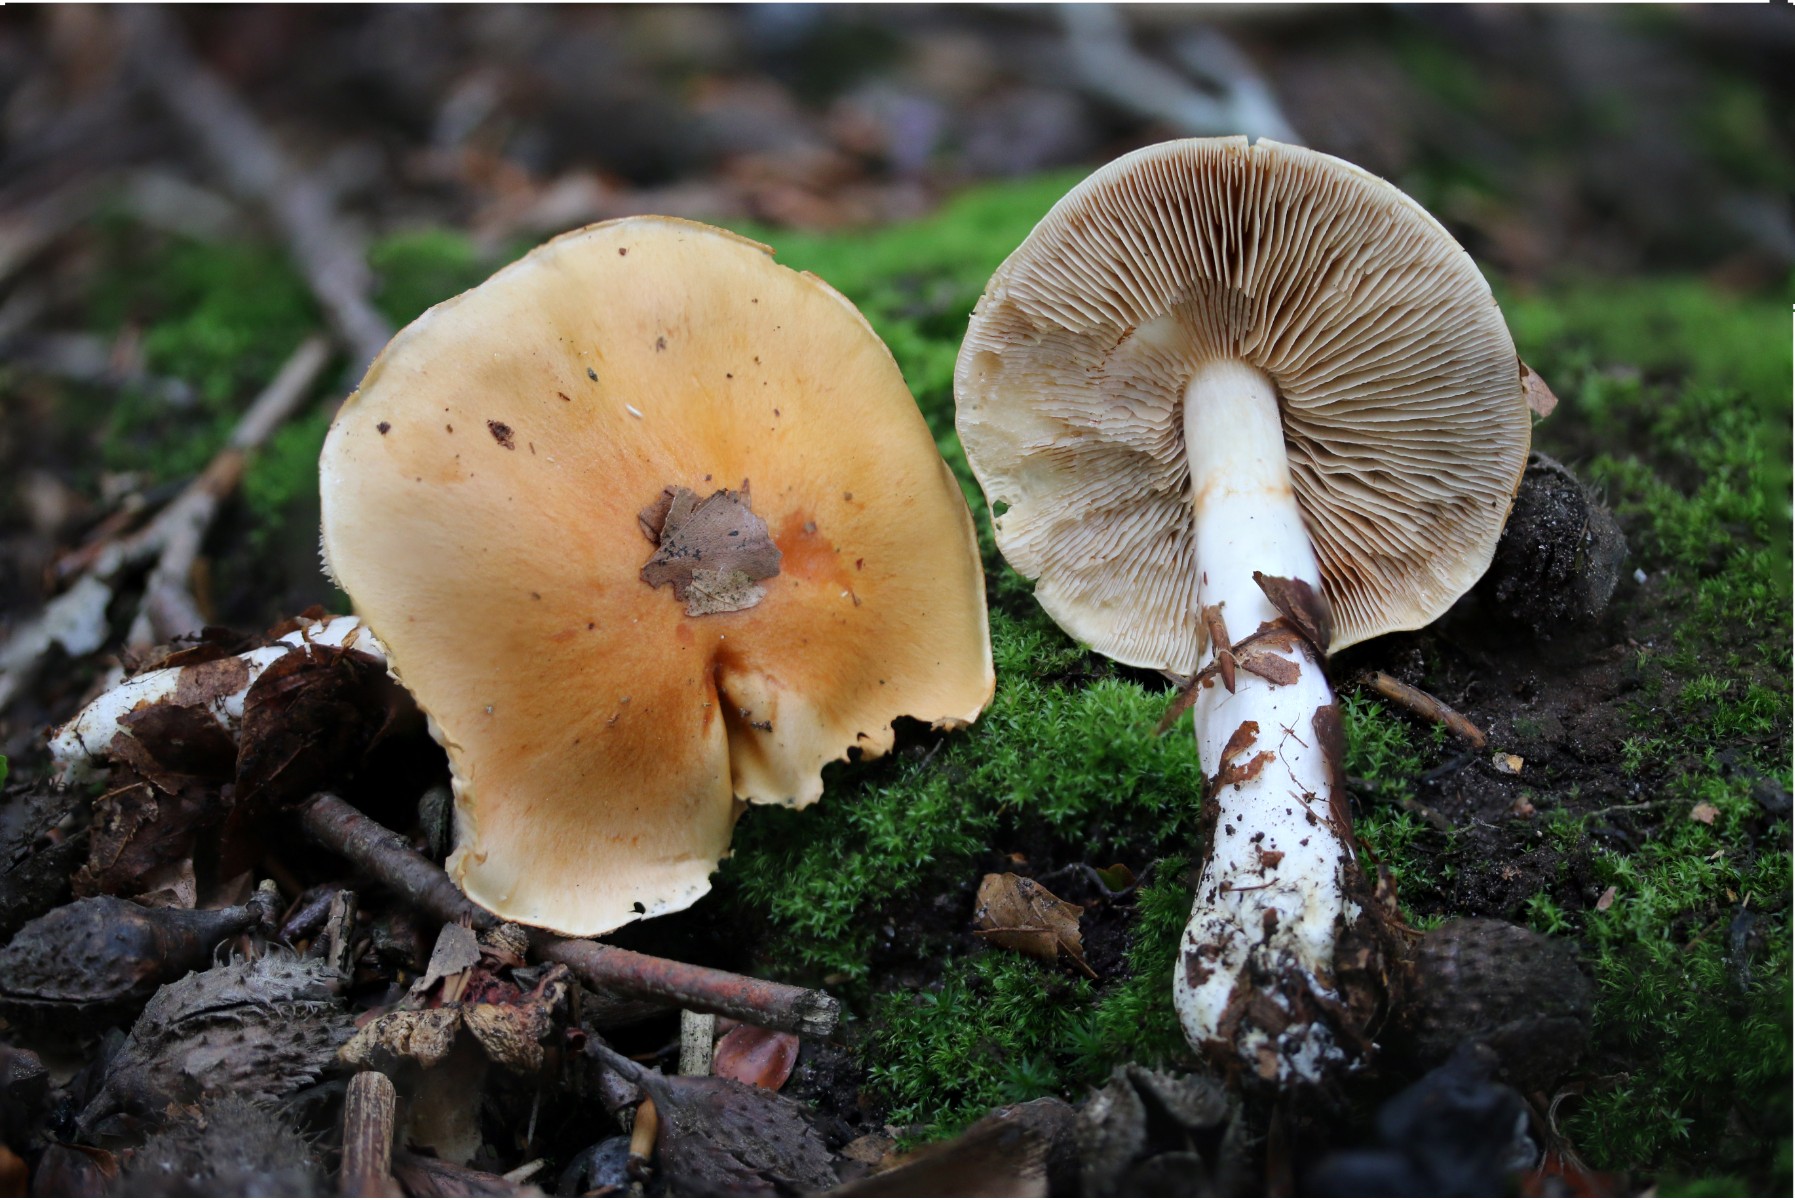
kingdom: Fungi
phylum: Basidiomycota
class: Agaricomycetes
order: Agaricales
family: Cortinariaceae
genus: Thaxterogaster
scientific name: Thaxterogaster emollitus
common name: besk slørhat
